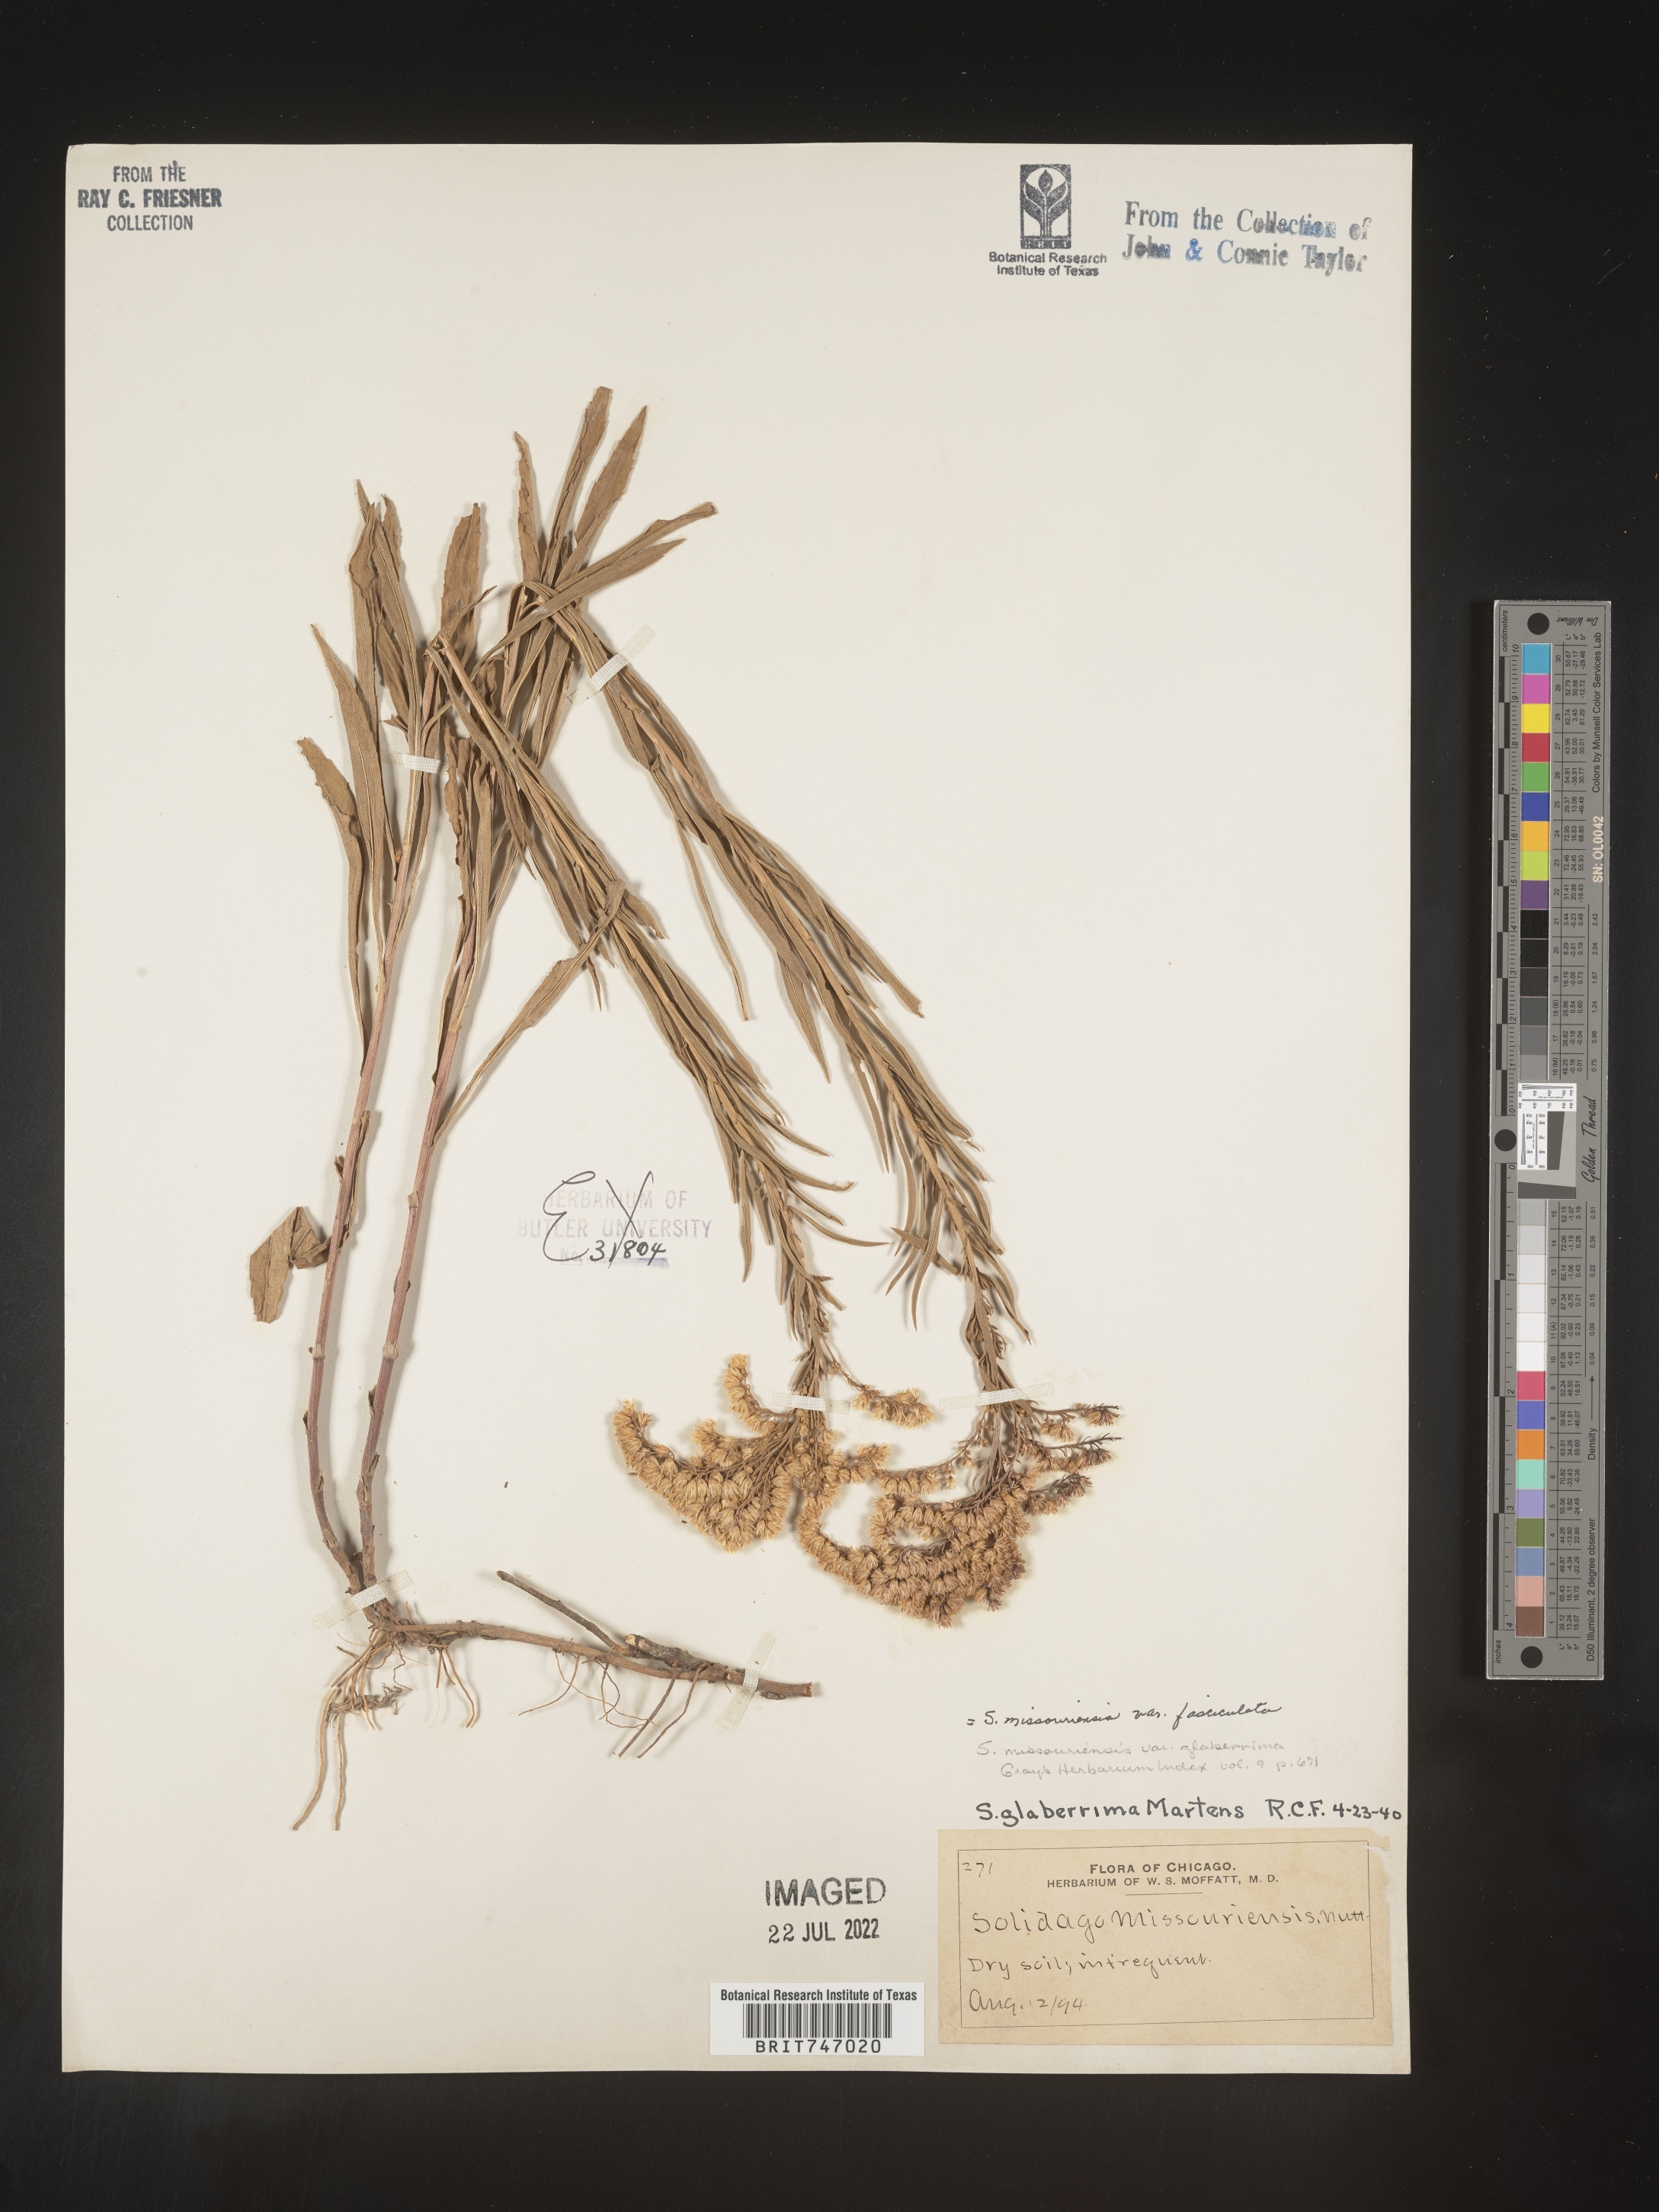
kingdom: Plantae
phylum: Tracheophyta
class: Magnoliopsida
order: Asterales
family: Asteraceae
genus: Solidago
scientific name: Solidago missouriensis
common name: Prairie goldenrod
